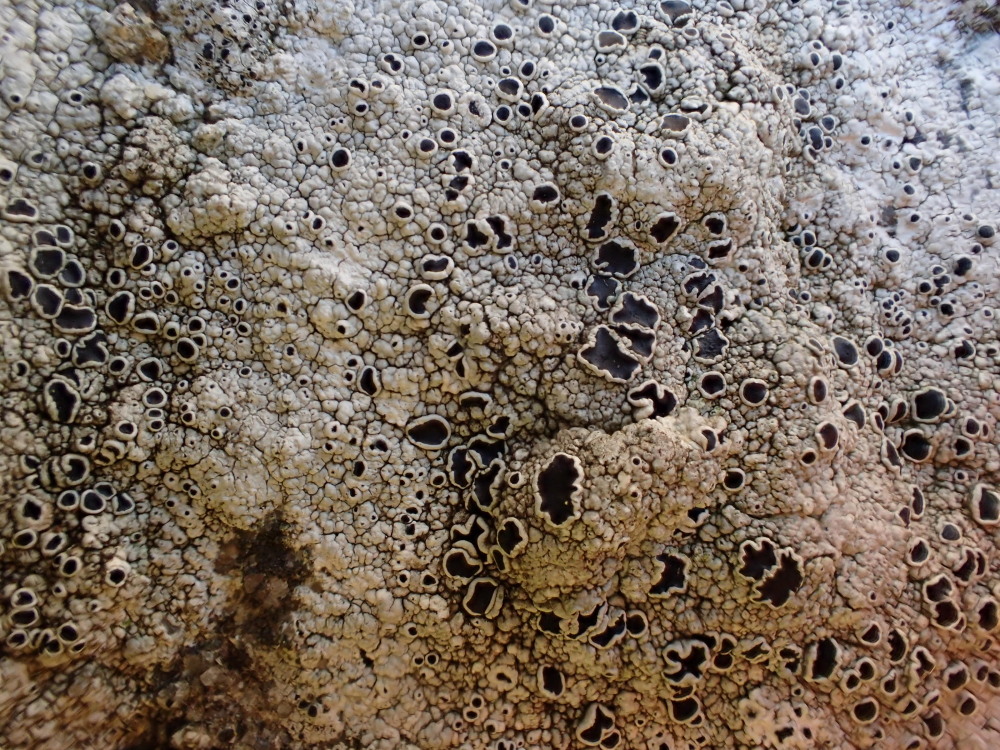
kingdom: Fungi
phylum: Ascomycota
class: Lecanoromycetes
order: Lecanorales
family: Tephromelataceae
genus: Tephromela
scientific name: Tephromela atra
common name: sortfrugtet kantskivelav
